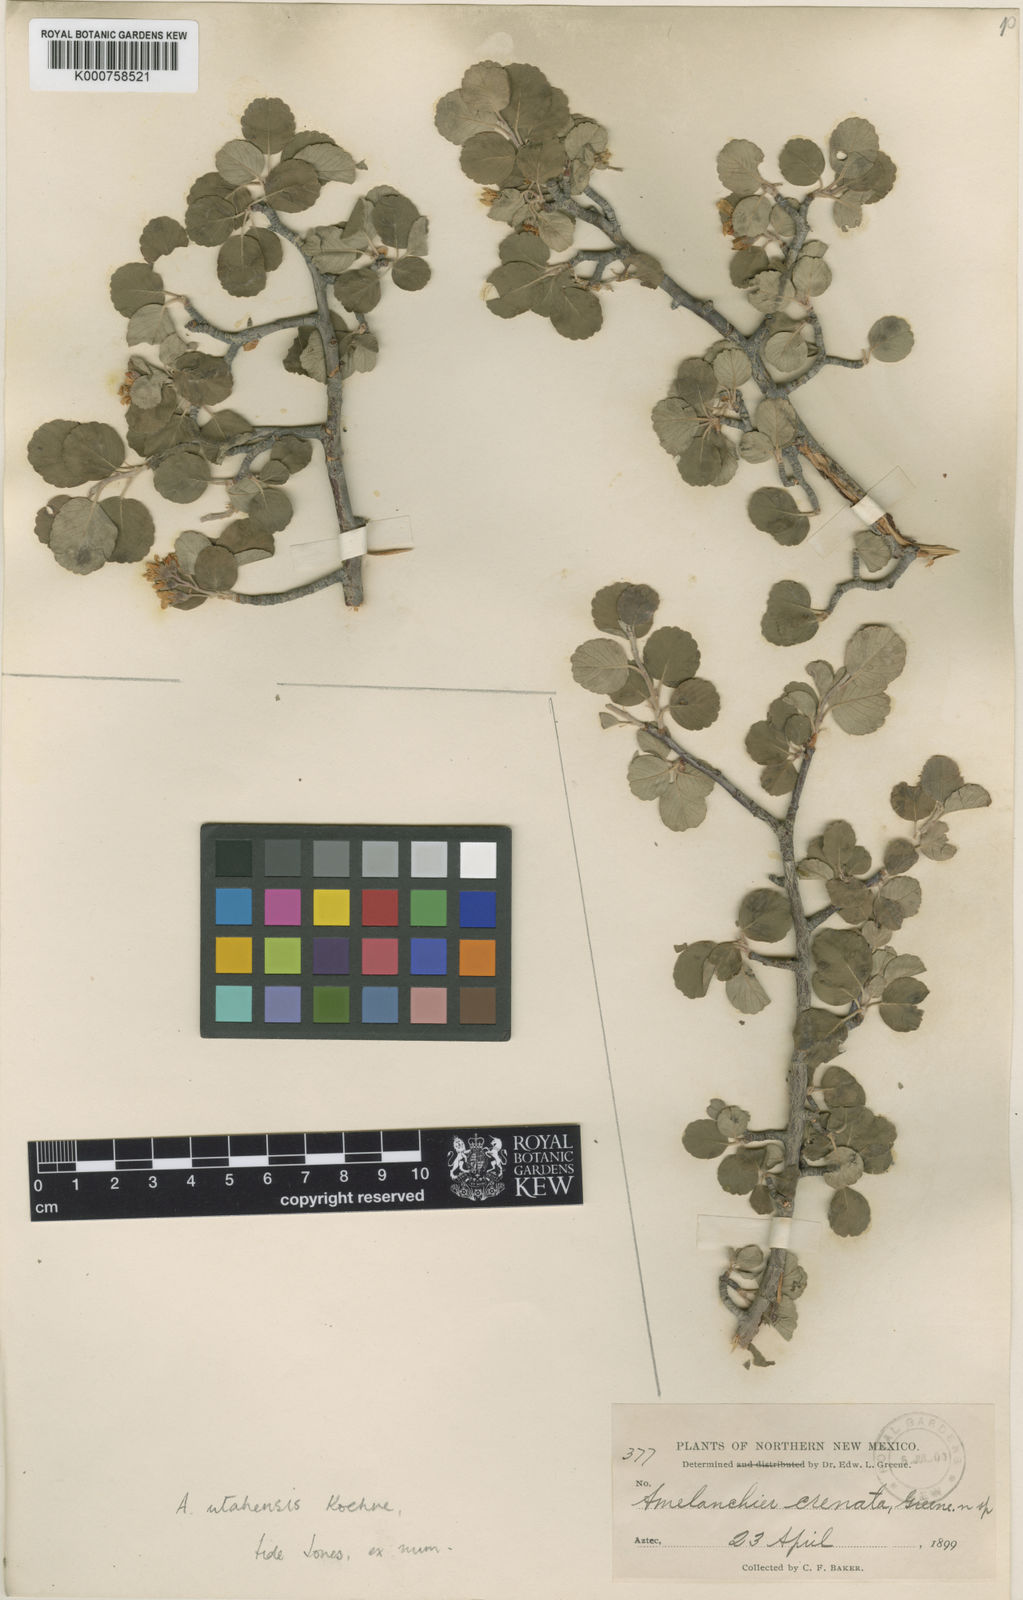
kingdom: Plantae
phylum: Tracheophyta
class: Magnoliopsida
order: Rosales
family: Rosaceae
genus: Amelanchier
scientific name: Amelanchier utahensis
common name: Utah serviceberry
